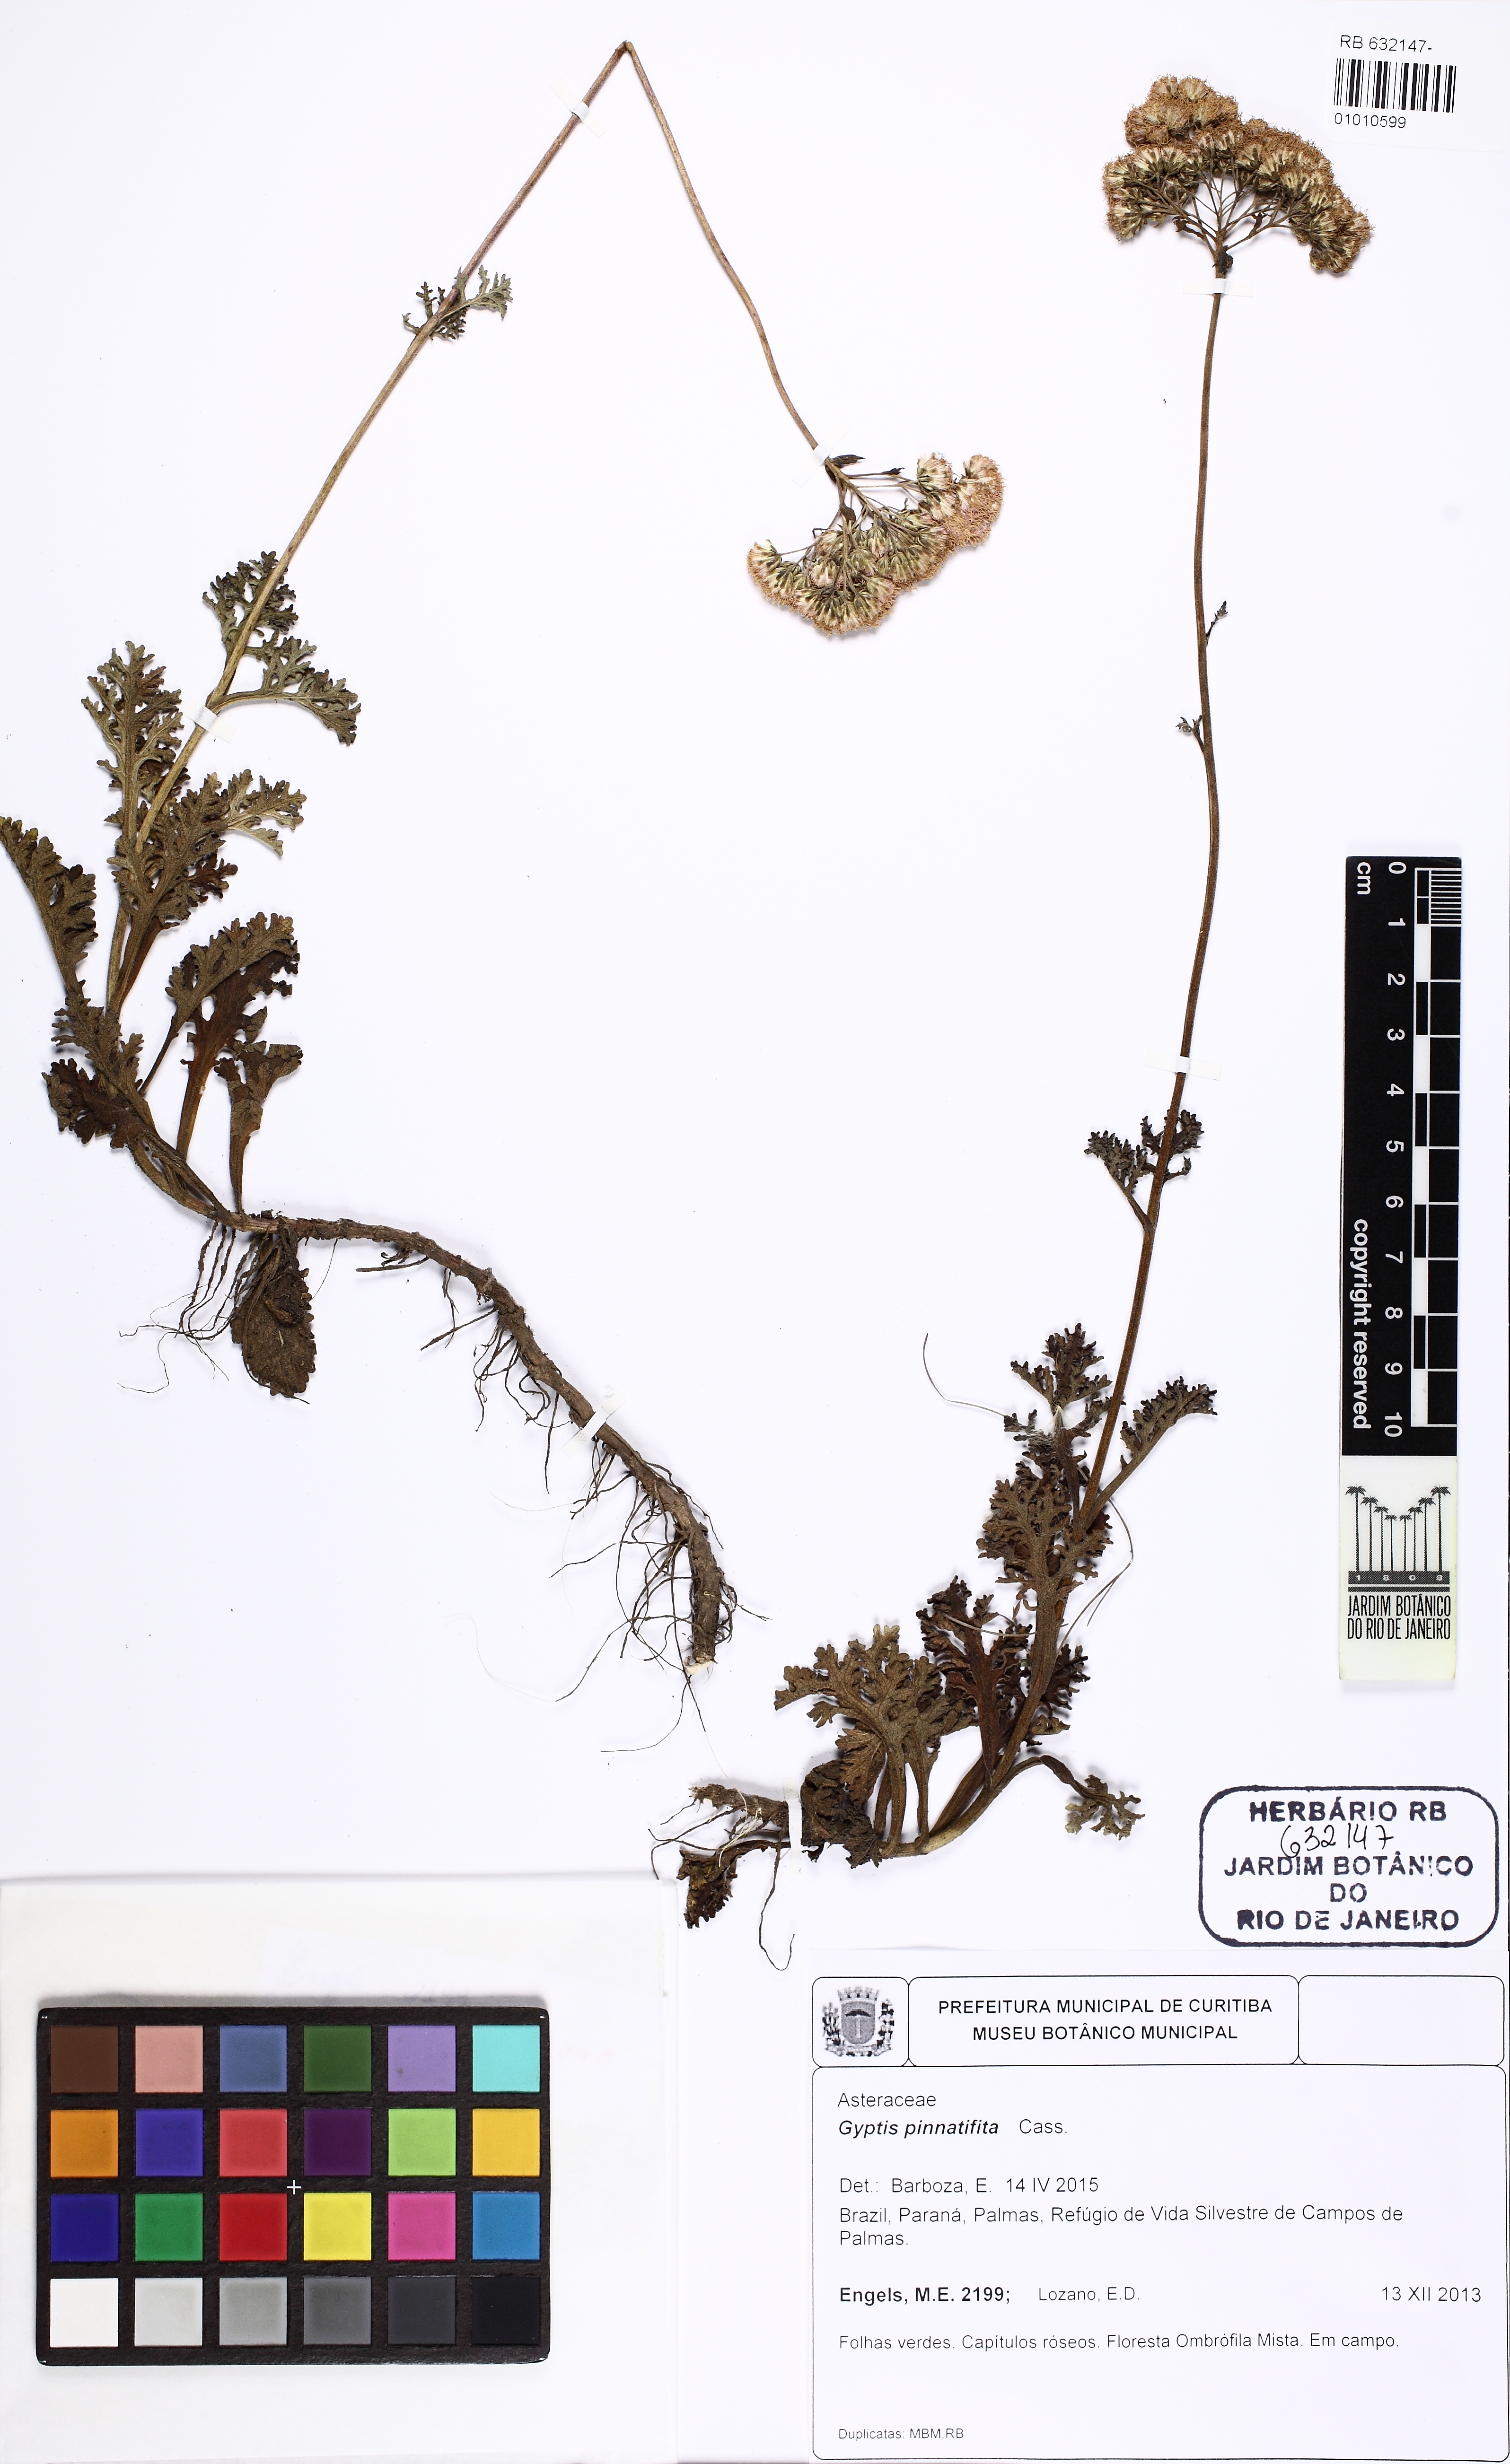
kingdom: Plantae
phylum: Tracheophyta
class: Magnoliopsida
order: Asterales
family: Asteraceae
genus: Gyptis
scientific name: Gyptis pinnatifida
